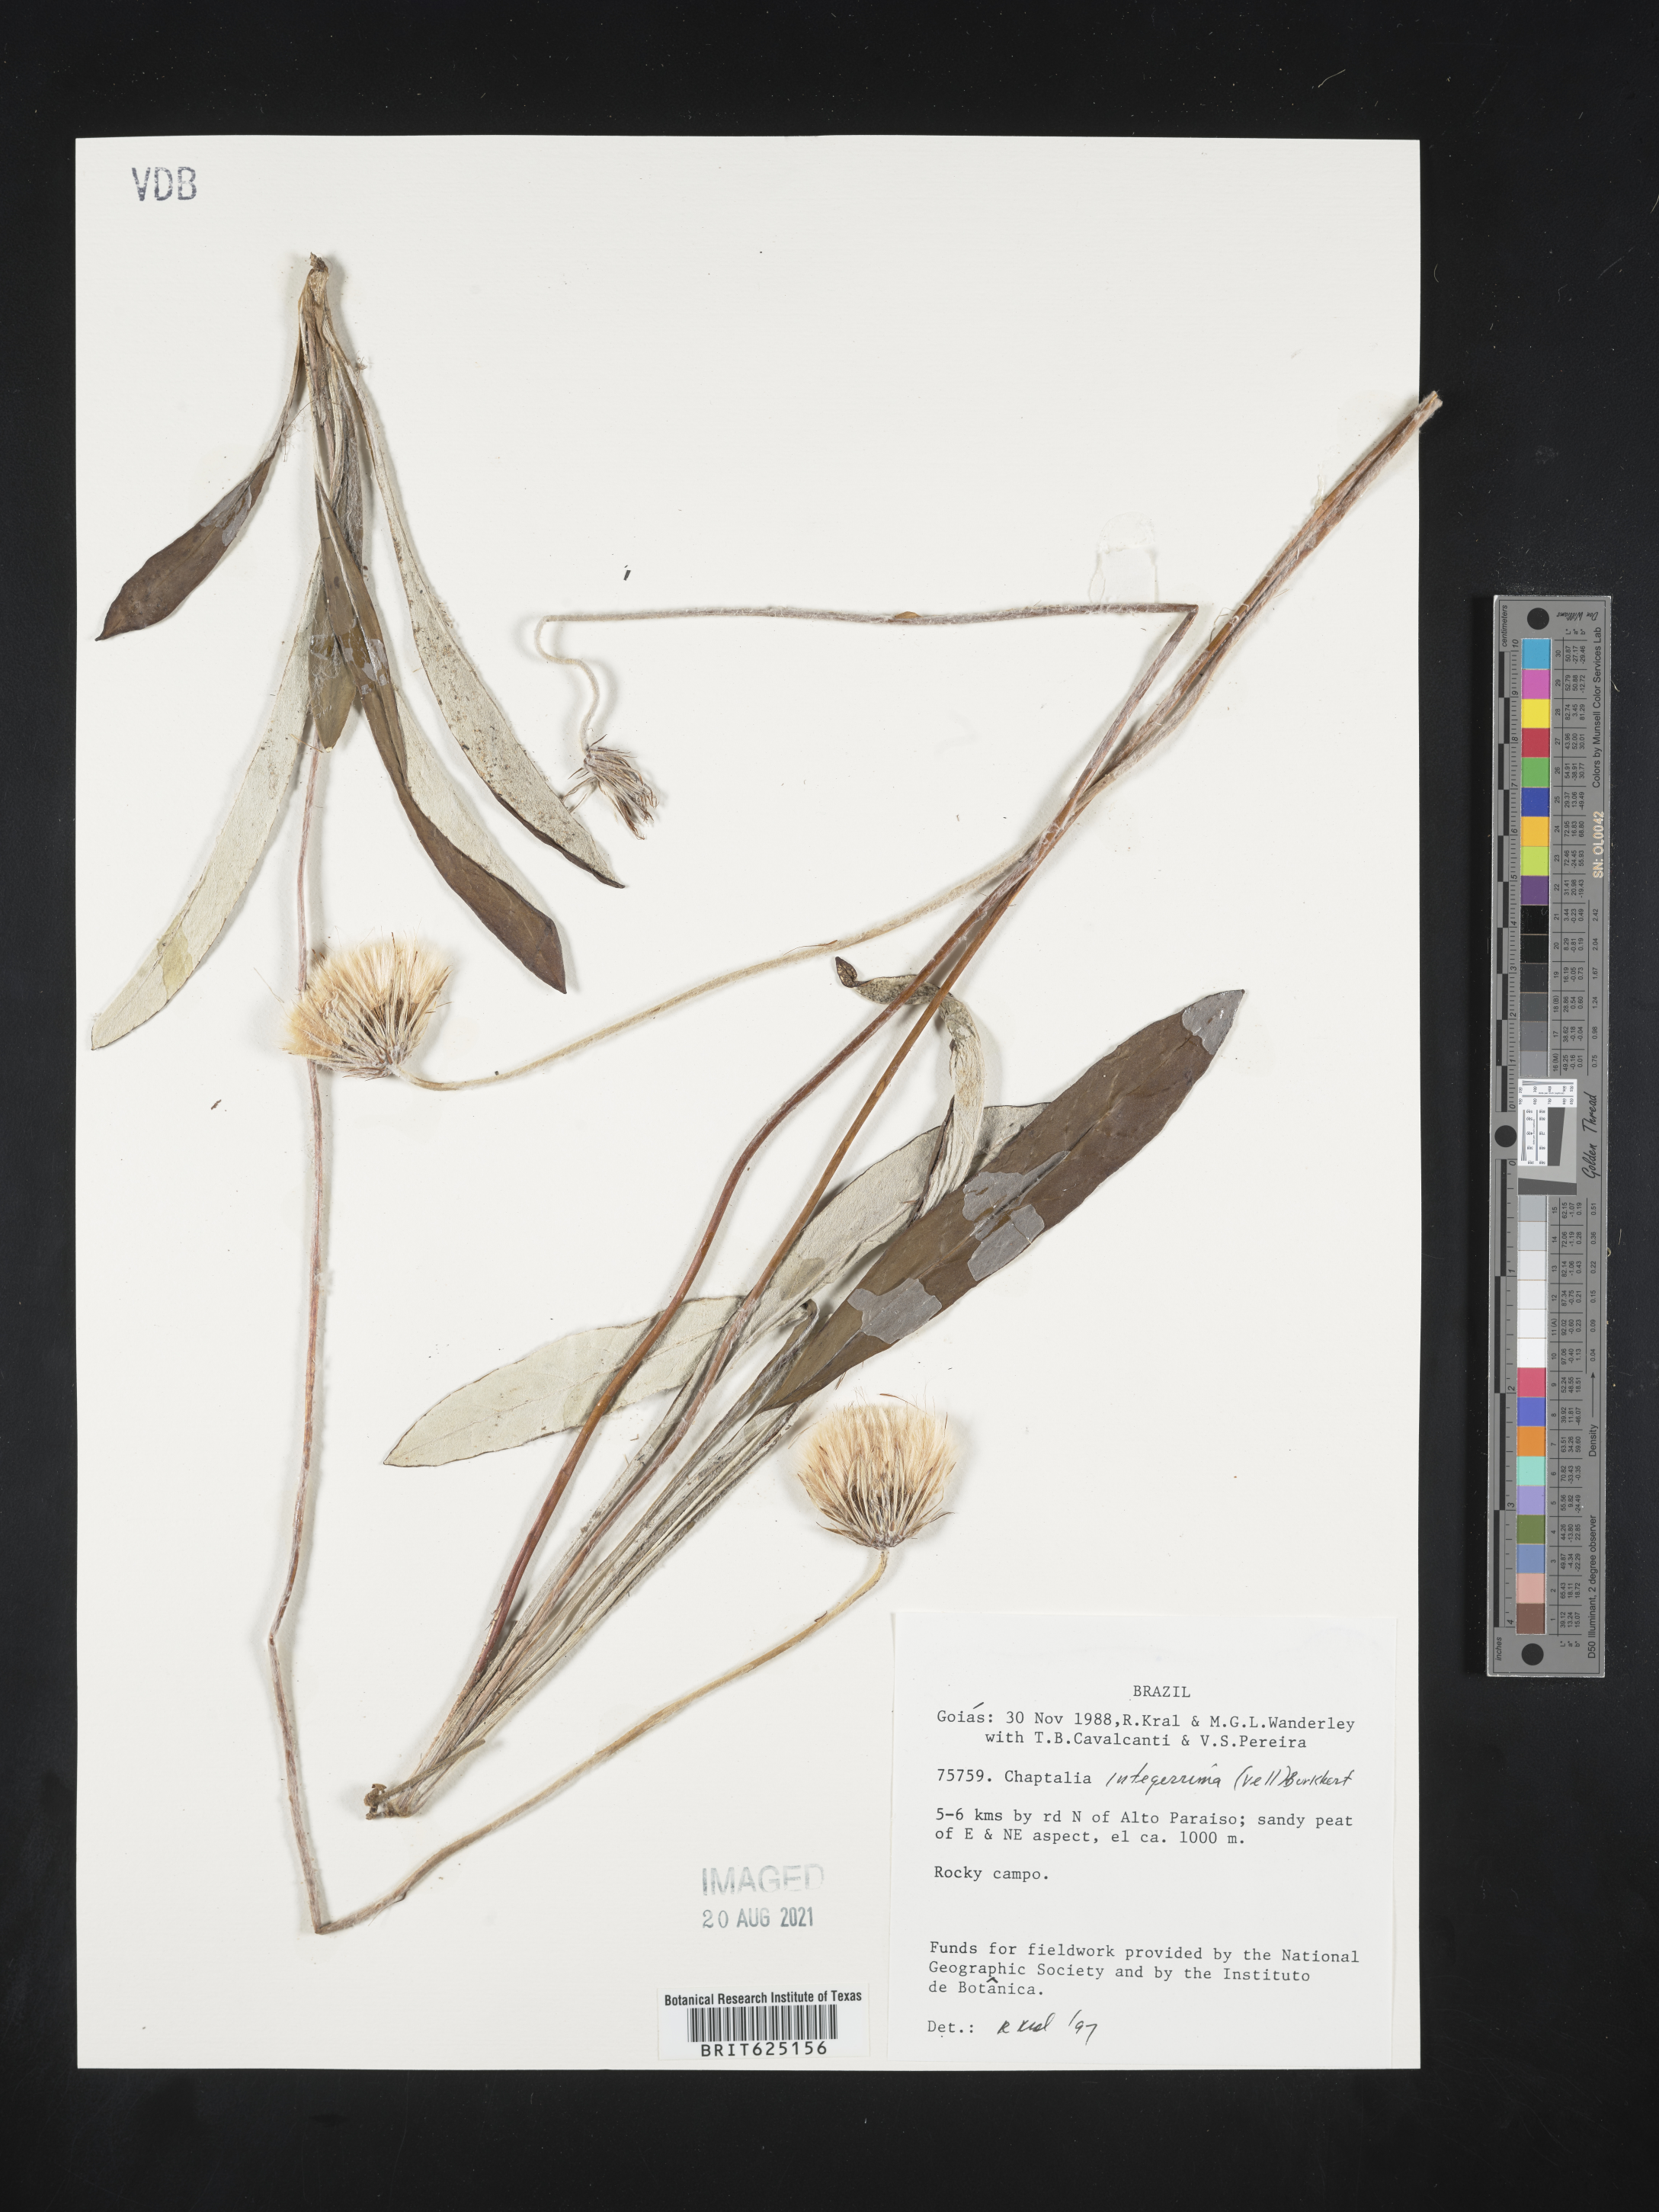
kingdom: Plantae
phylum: Tracheophyta
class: Magnoliopsida
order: Asterales
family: Asteraceae
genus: Chaptalia
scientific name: Chaptalia integerrima
